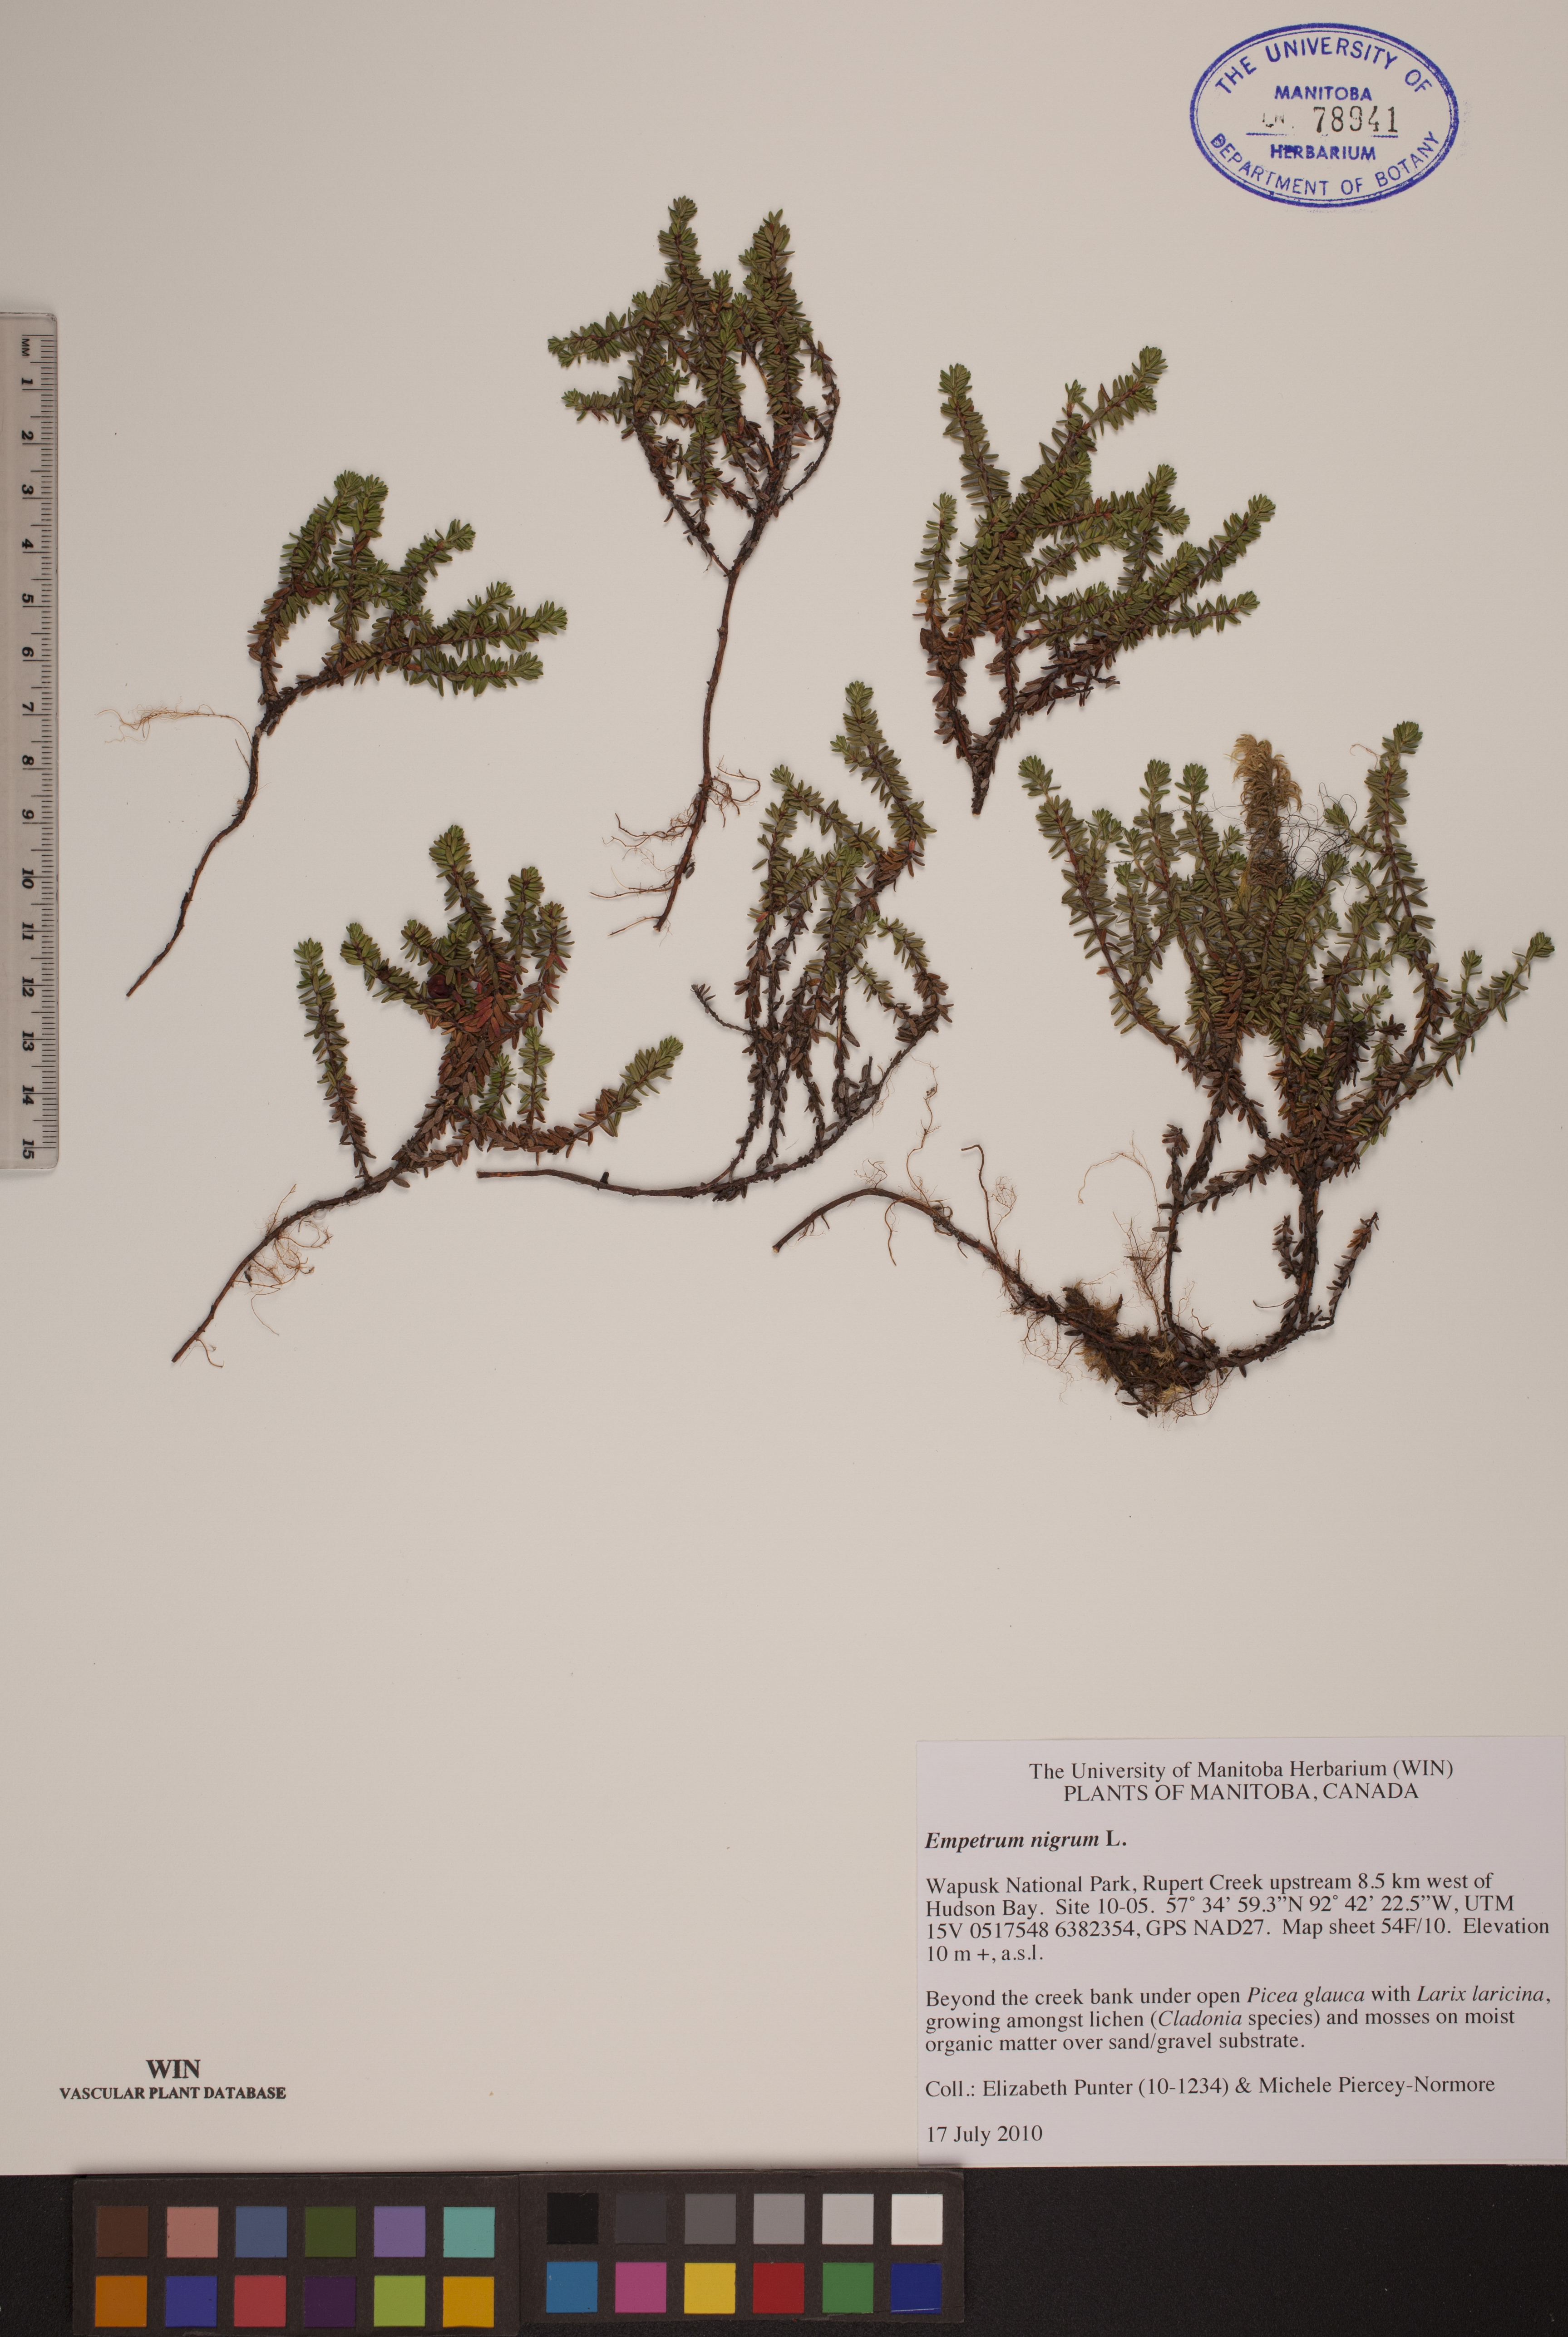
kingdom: Plantae
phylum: Tracheophyta
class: Magnoliopsida
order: Ericales
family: Ericaceae
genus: Empetrum
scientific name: Empetrum nigrum
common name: Black crowberry
